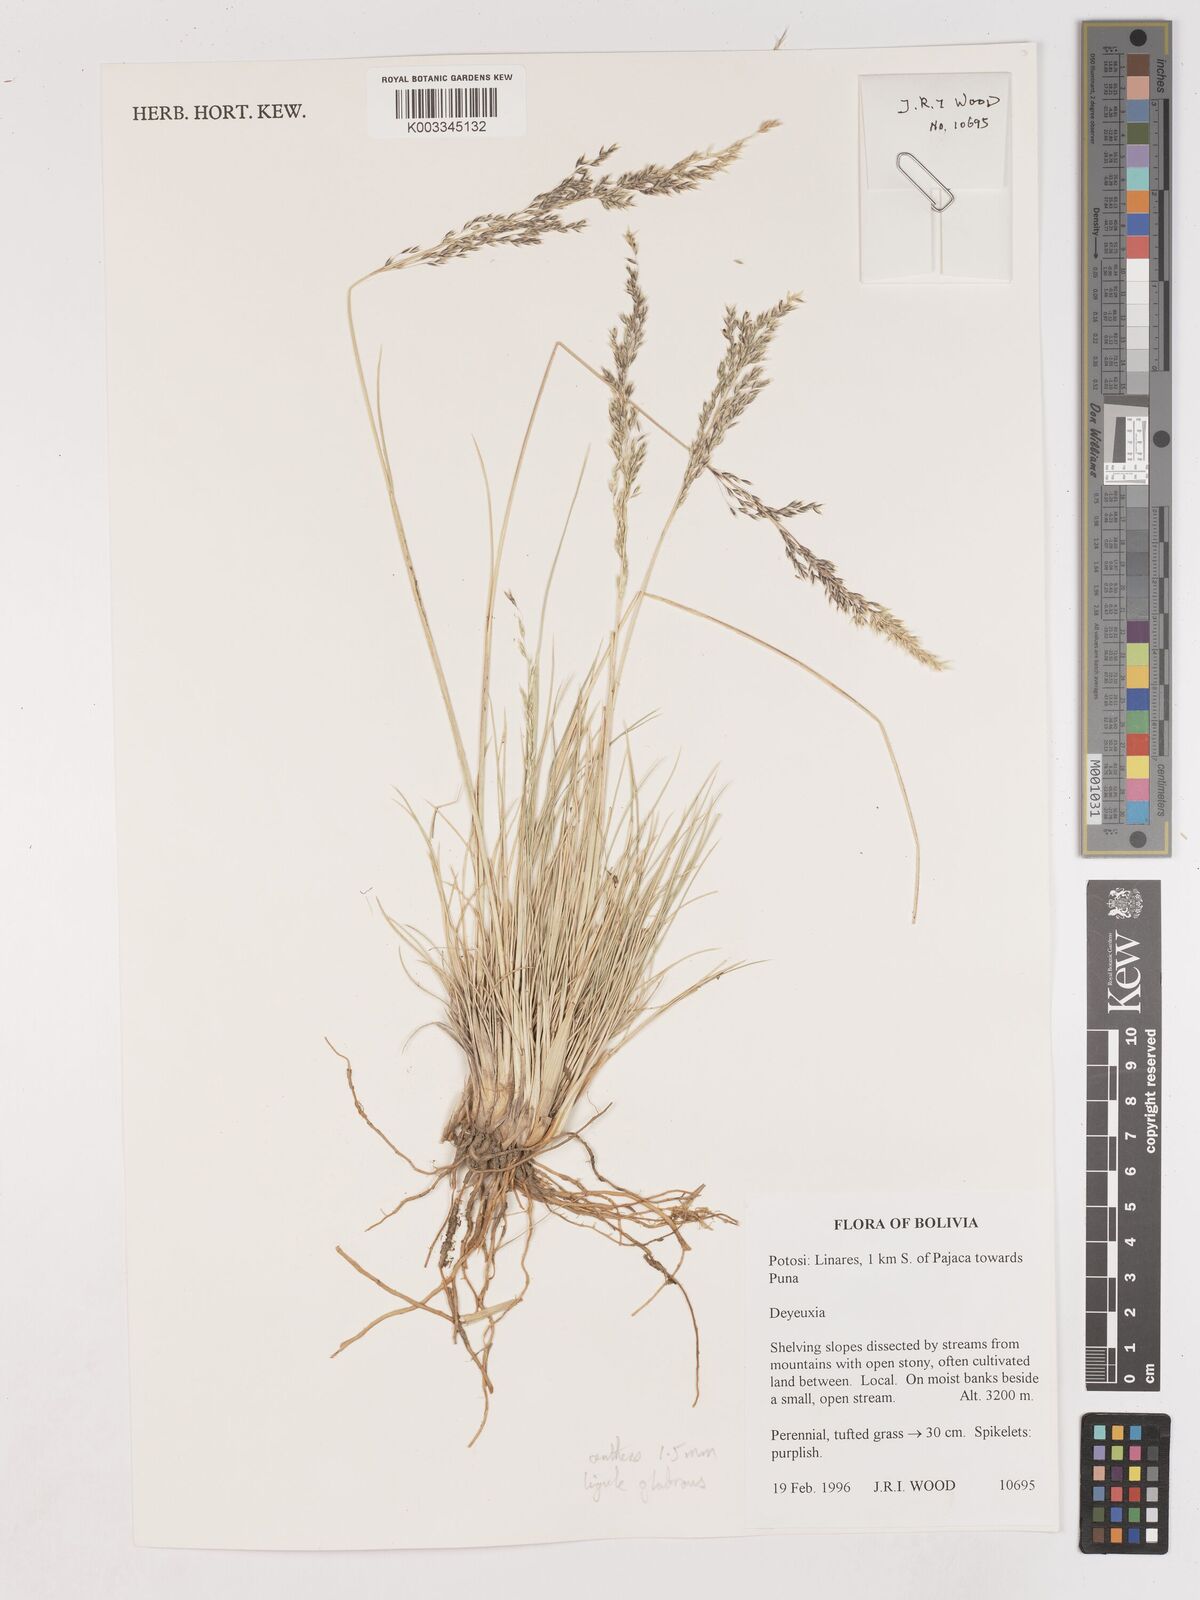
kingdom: Plantae
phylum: Tracheophyta
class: Liliopsida
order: Poales
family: Poaceae
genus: Calamagrostis
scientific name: Calamagrostis
